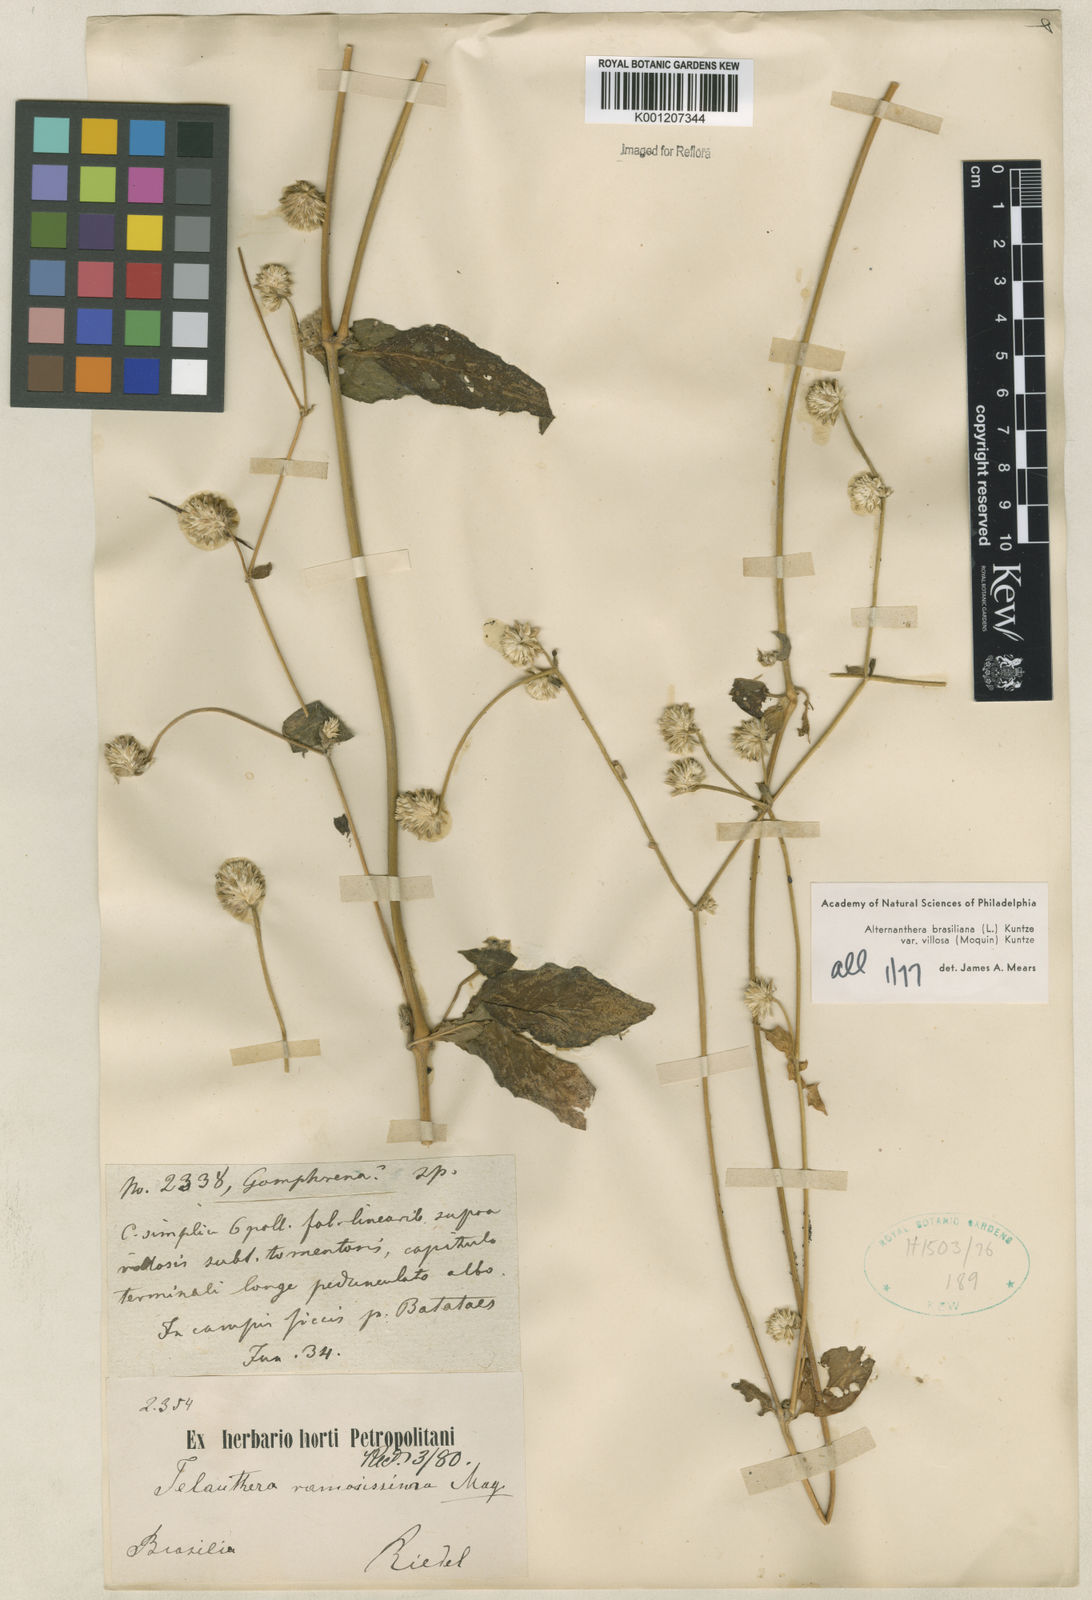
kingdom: Plantae
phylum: Tracheophyta
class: Magnoliopsida
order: Caryophyllales
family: Amaranthaceae
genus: Alternanthera
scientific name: Alternanthera ramosissima
